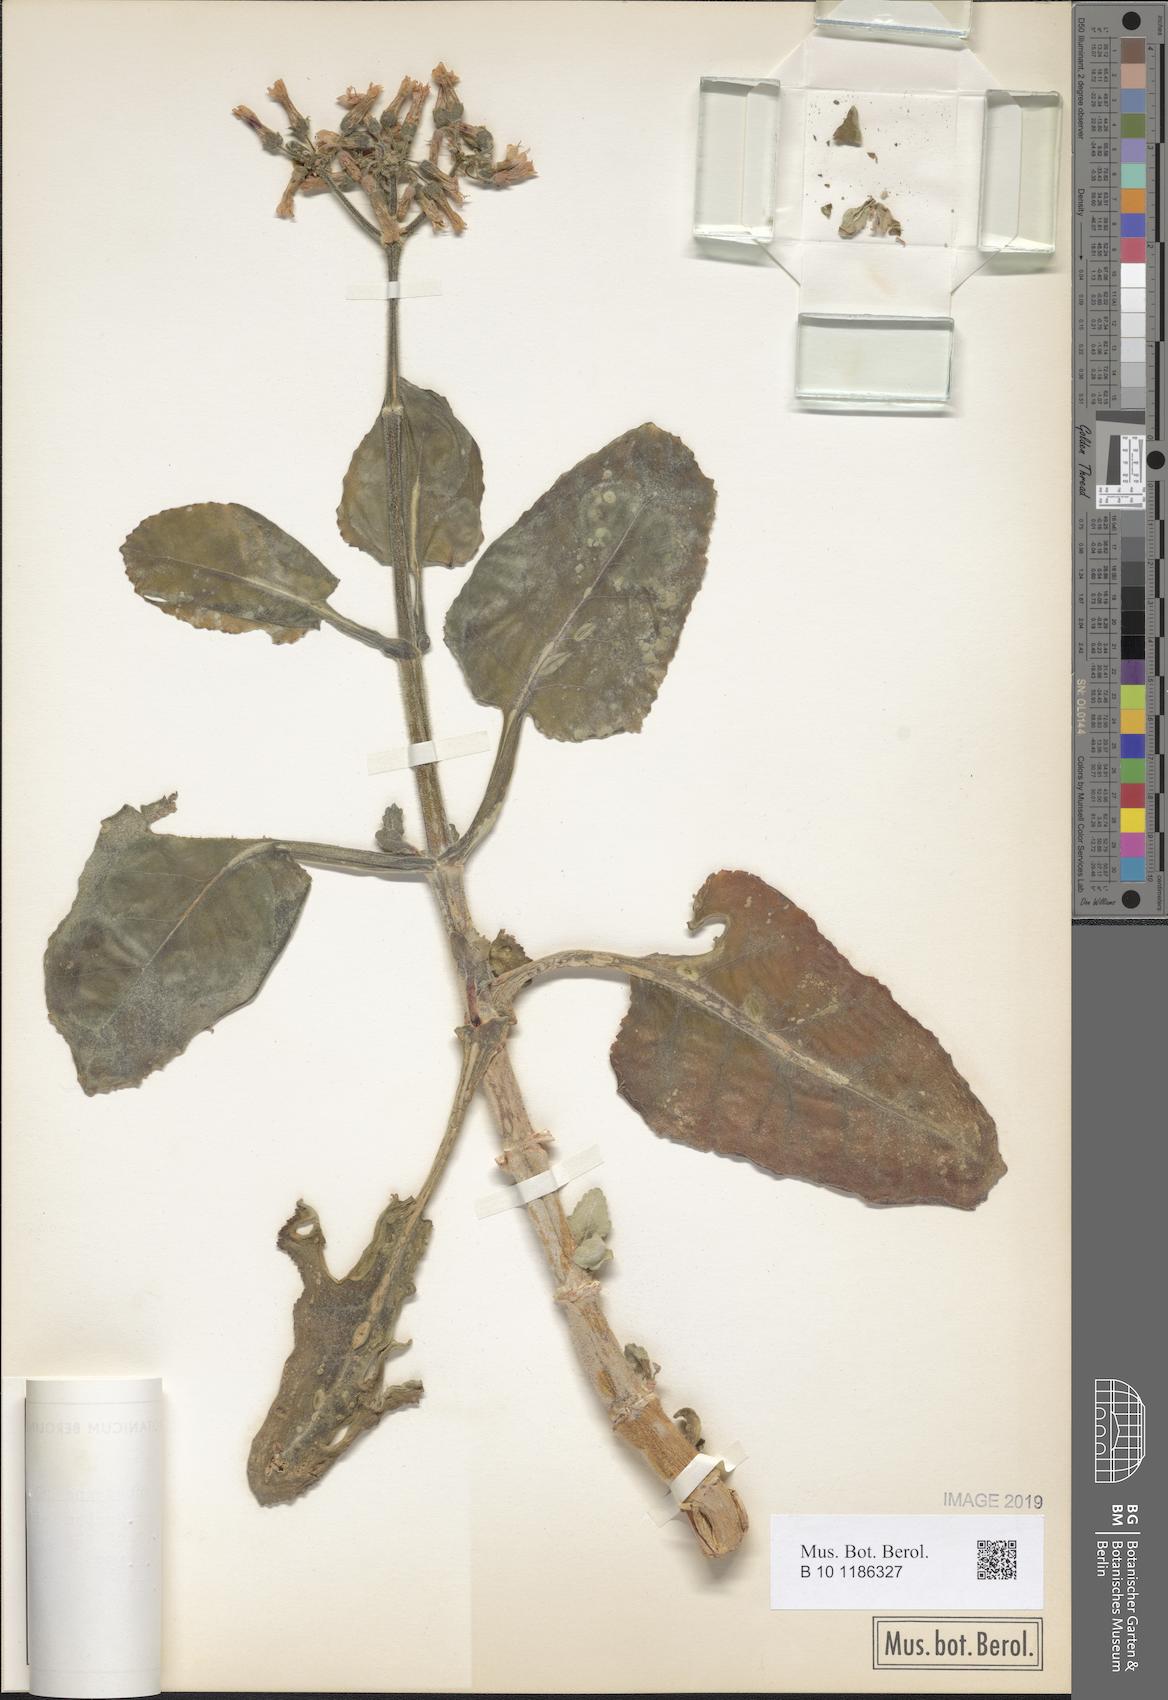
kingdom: Plantae
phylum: Tracheophyta
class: Magnoliopsida
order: Saxifragales
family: Crassulaceae
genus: Kalanchoe
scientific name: Kalanchoe pubescens
